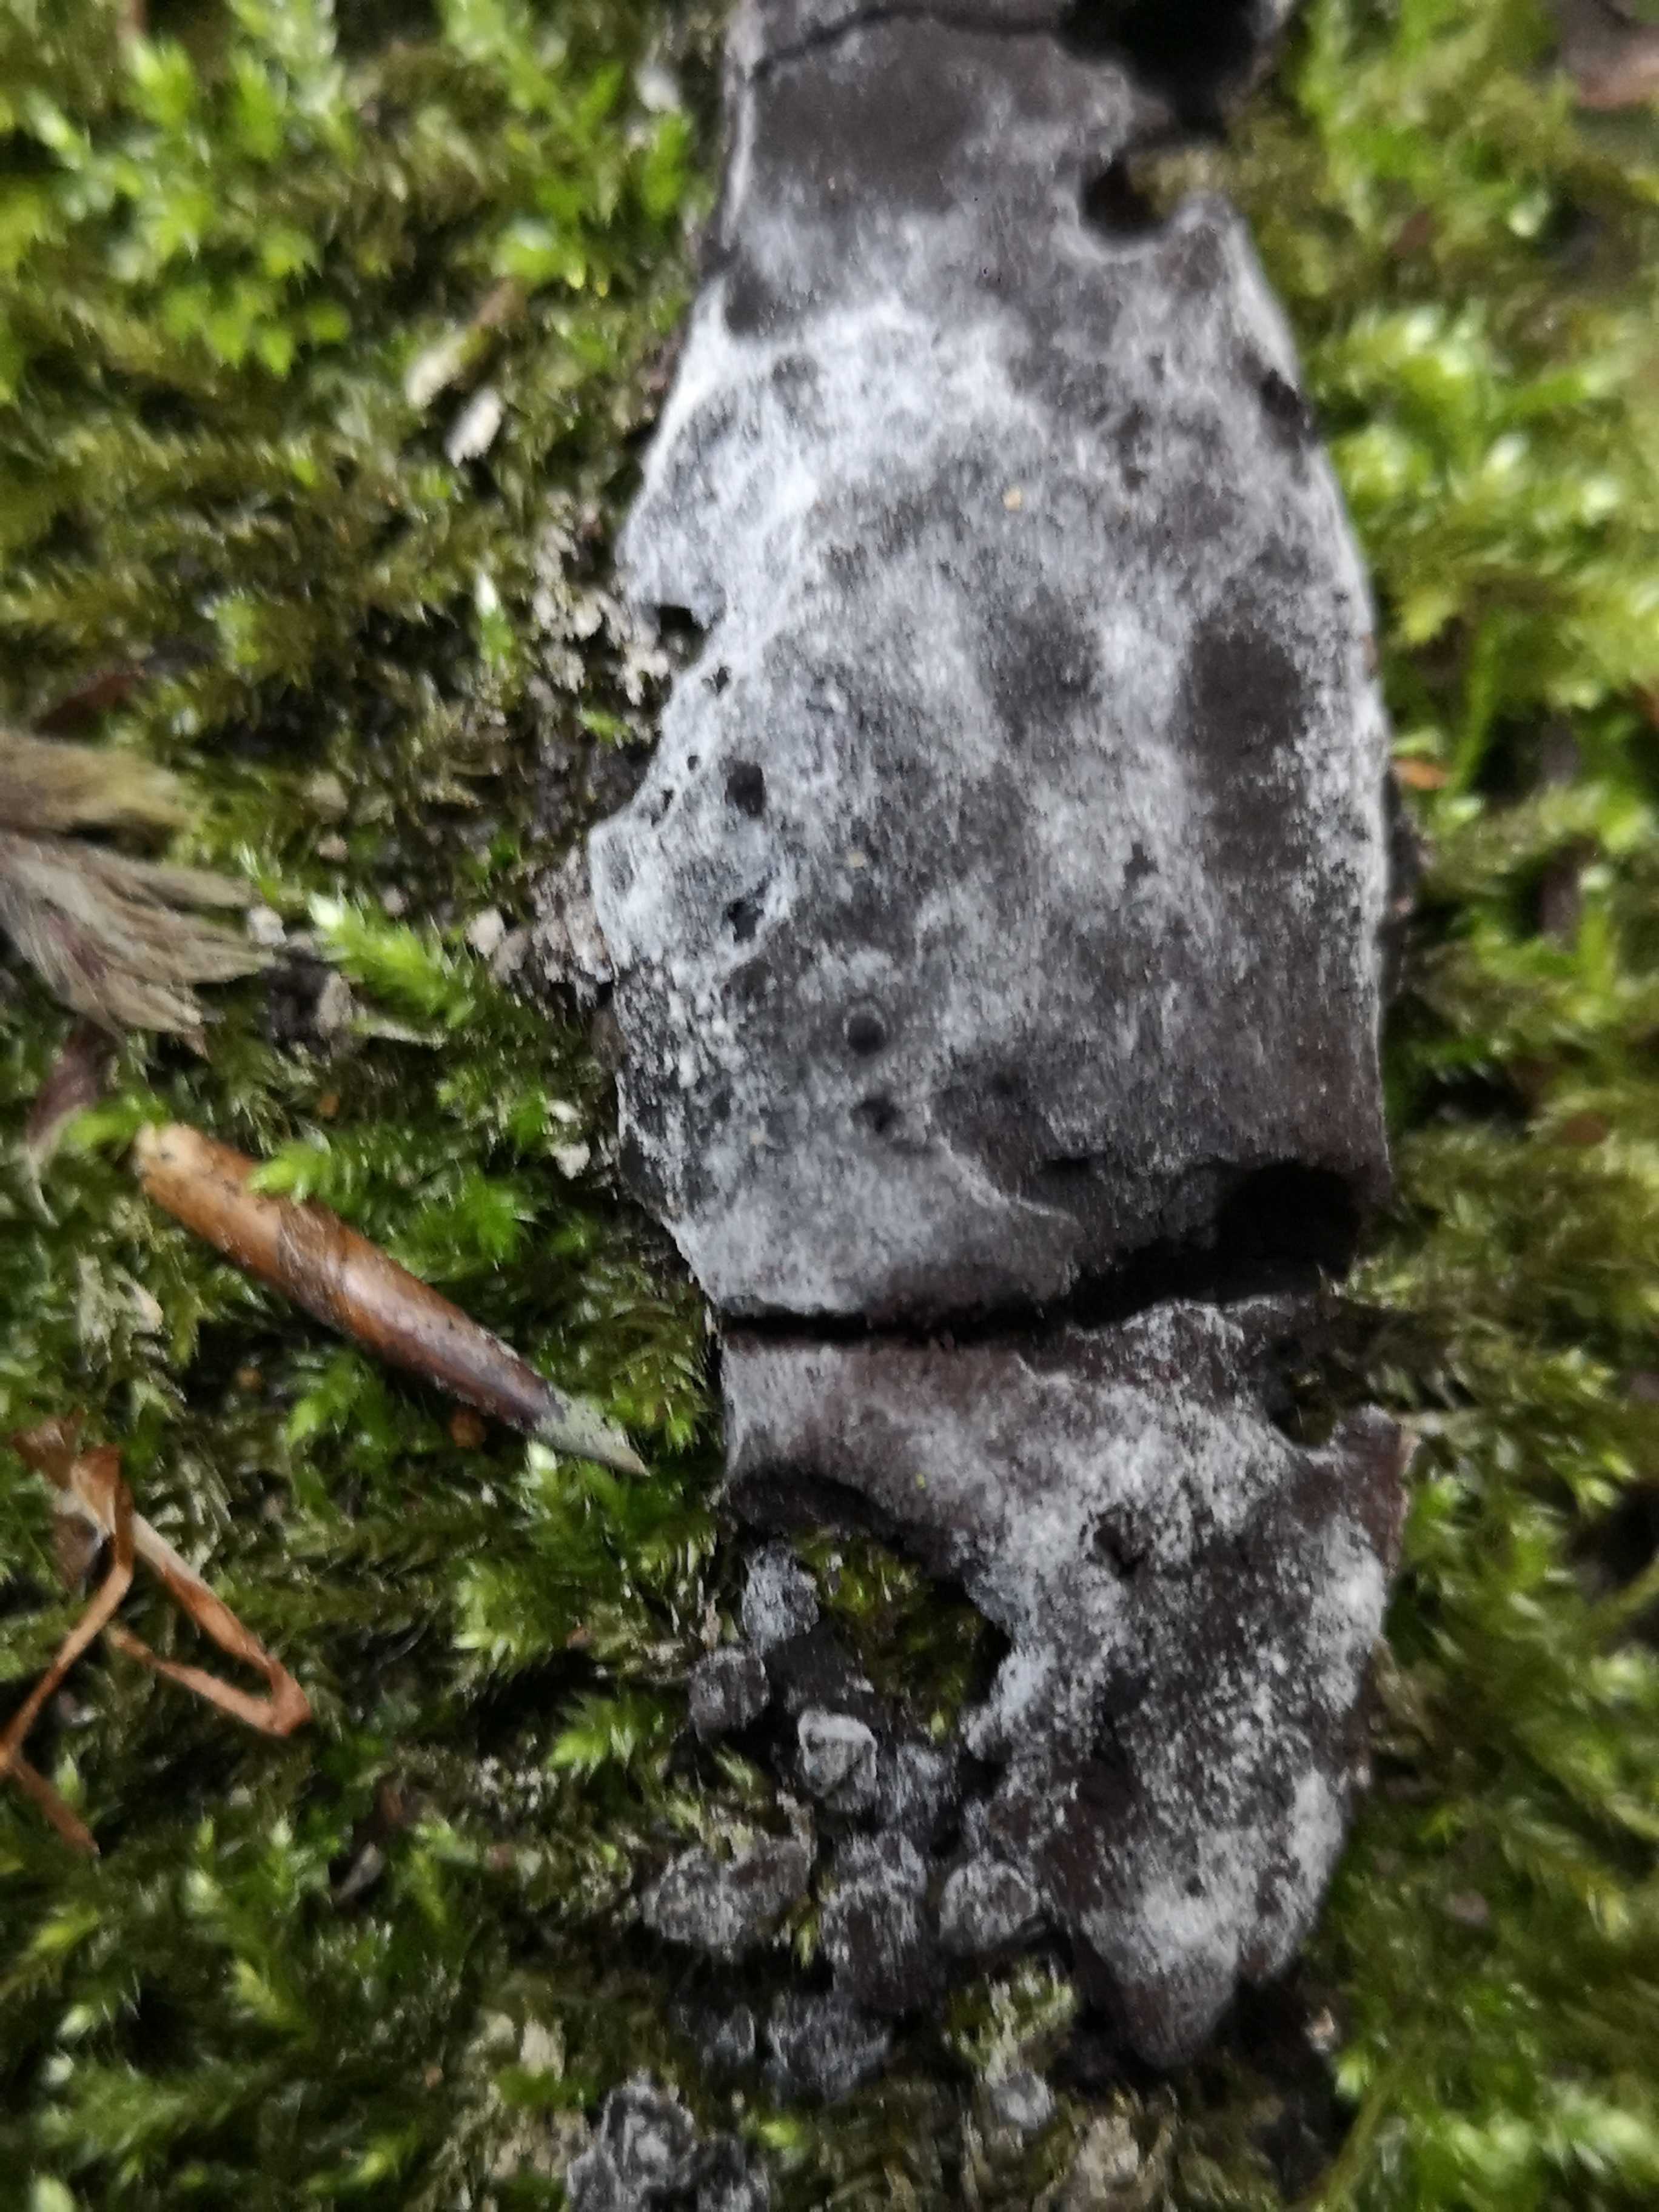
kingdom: Protozoa
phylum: Mycetozoa
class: Myxomycetes
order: Physarales
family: Physaraceae
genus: Fuligo
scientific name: Fuligo
